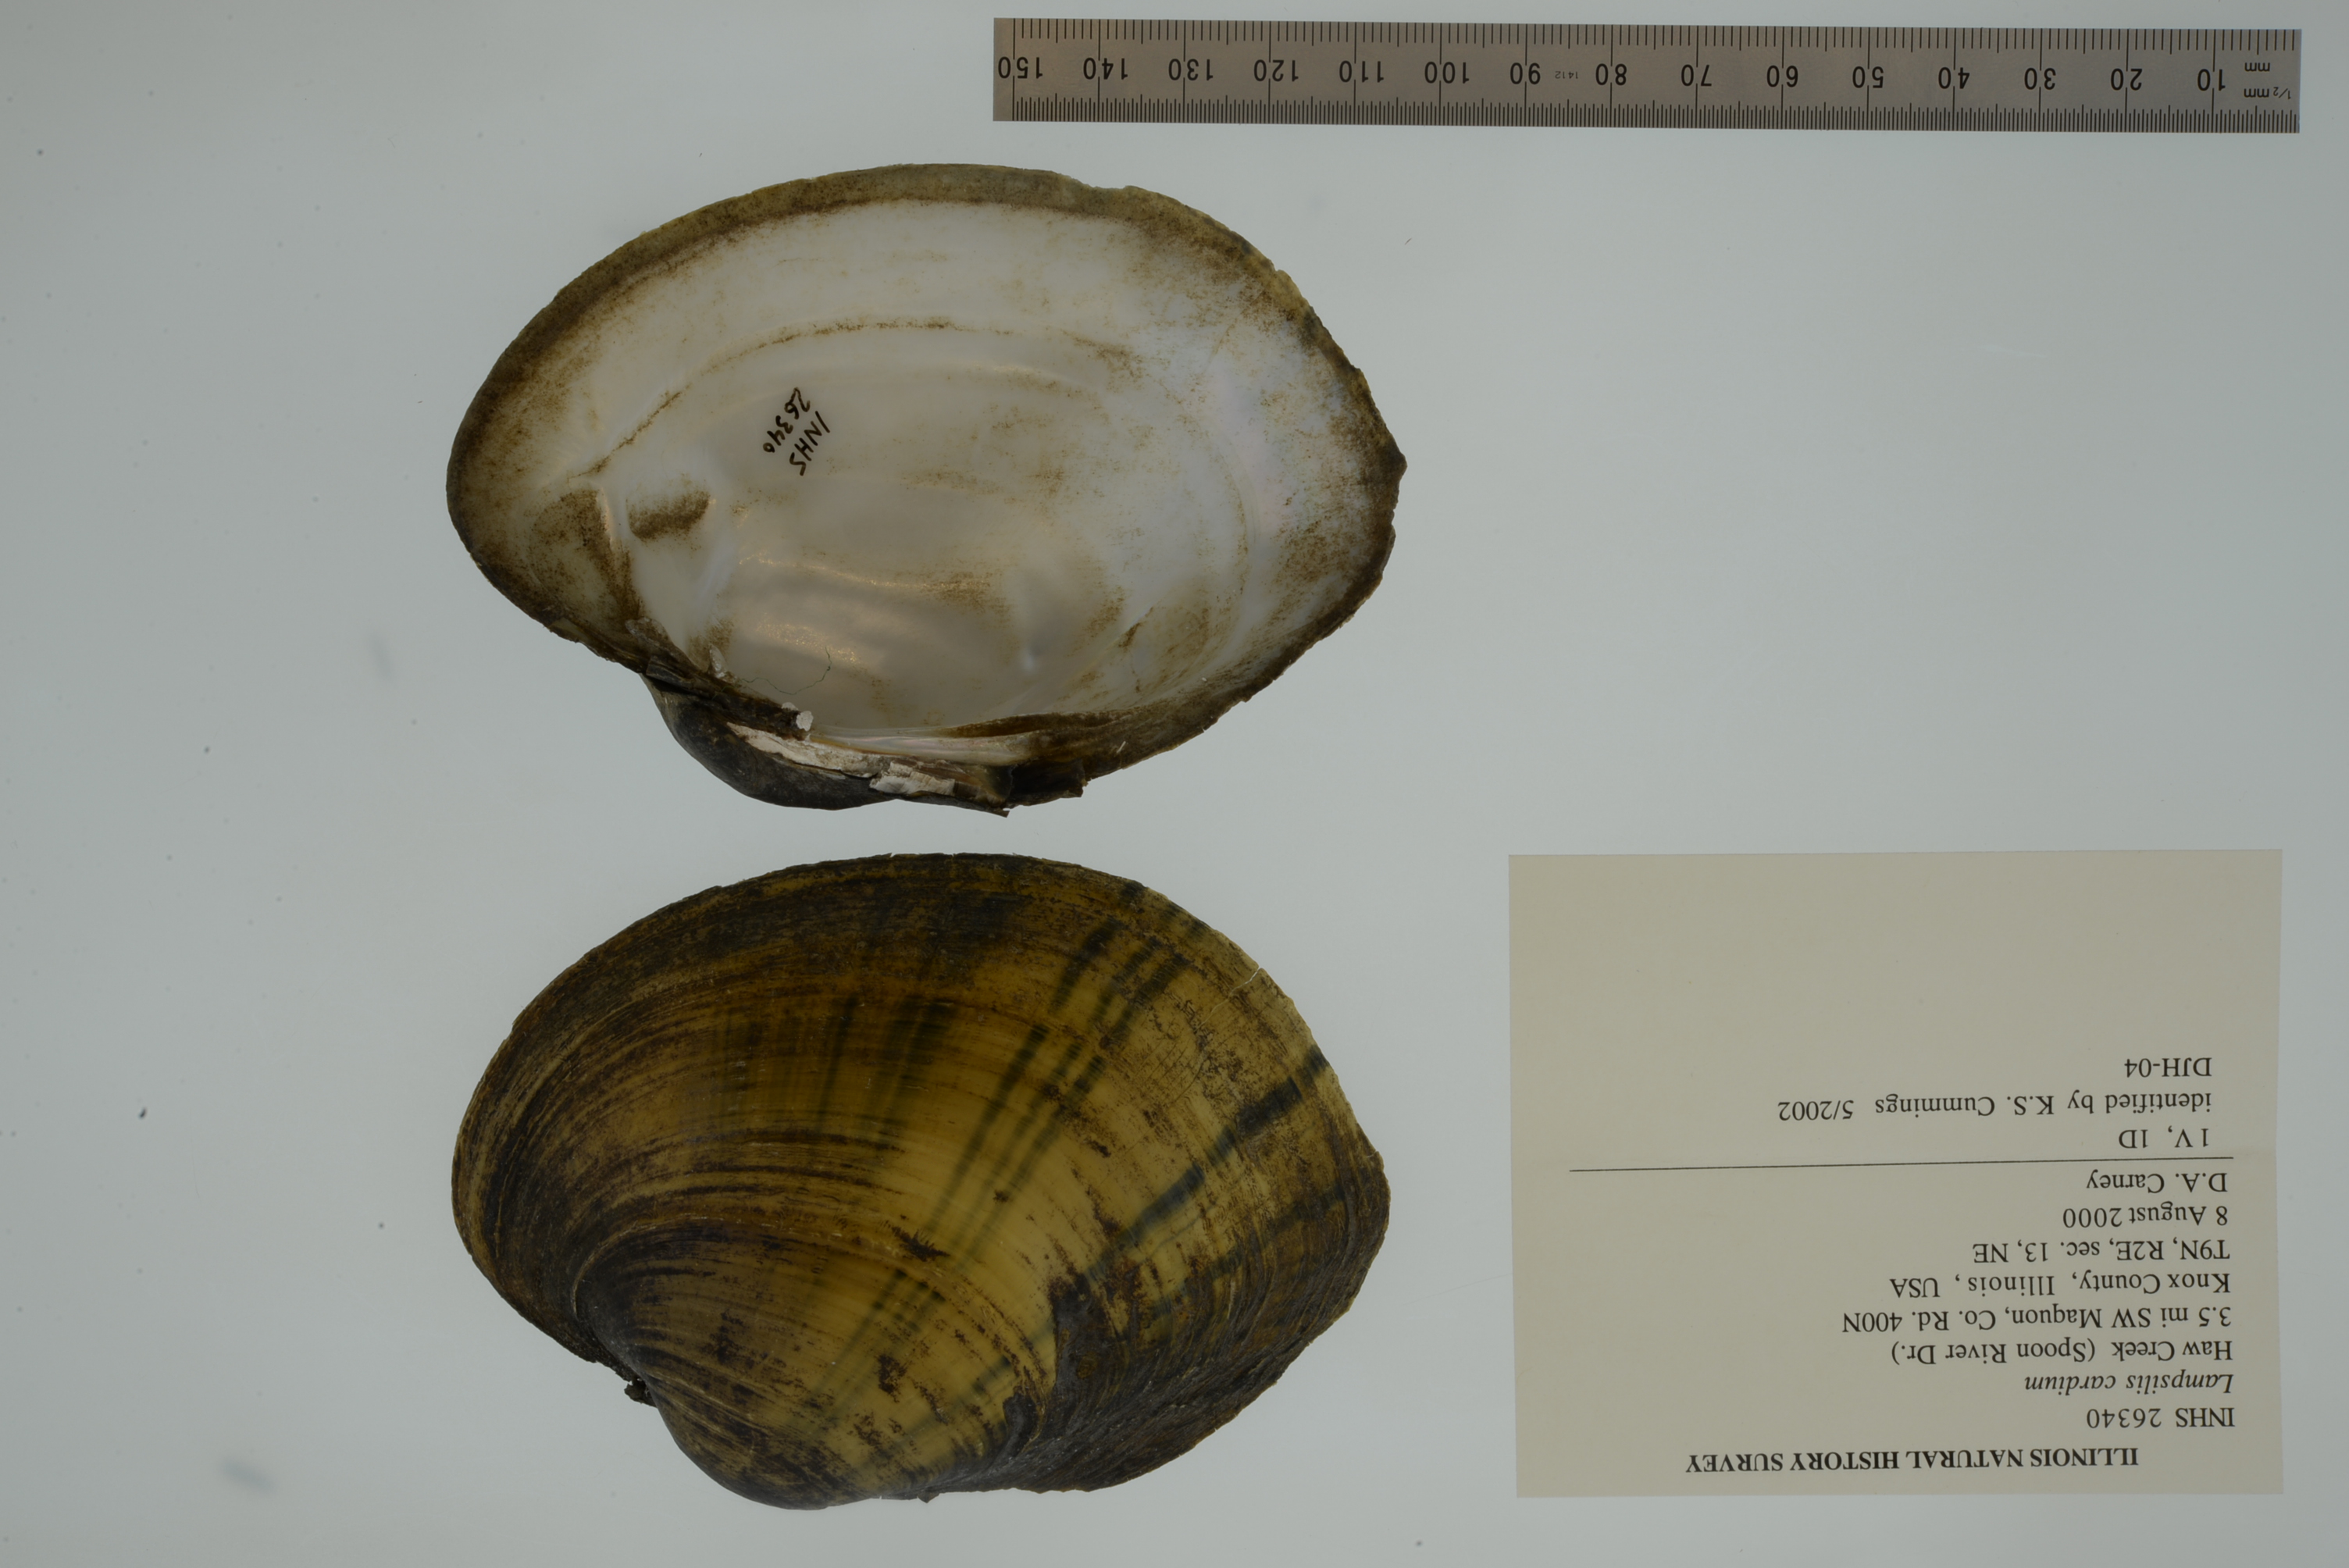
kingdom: Animalia
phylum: Mollusca
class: Bivalvia
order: Unionida
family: Unionidae
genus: Lampsilis
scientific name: Lampsilis cardium
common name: Plain pocketbook
